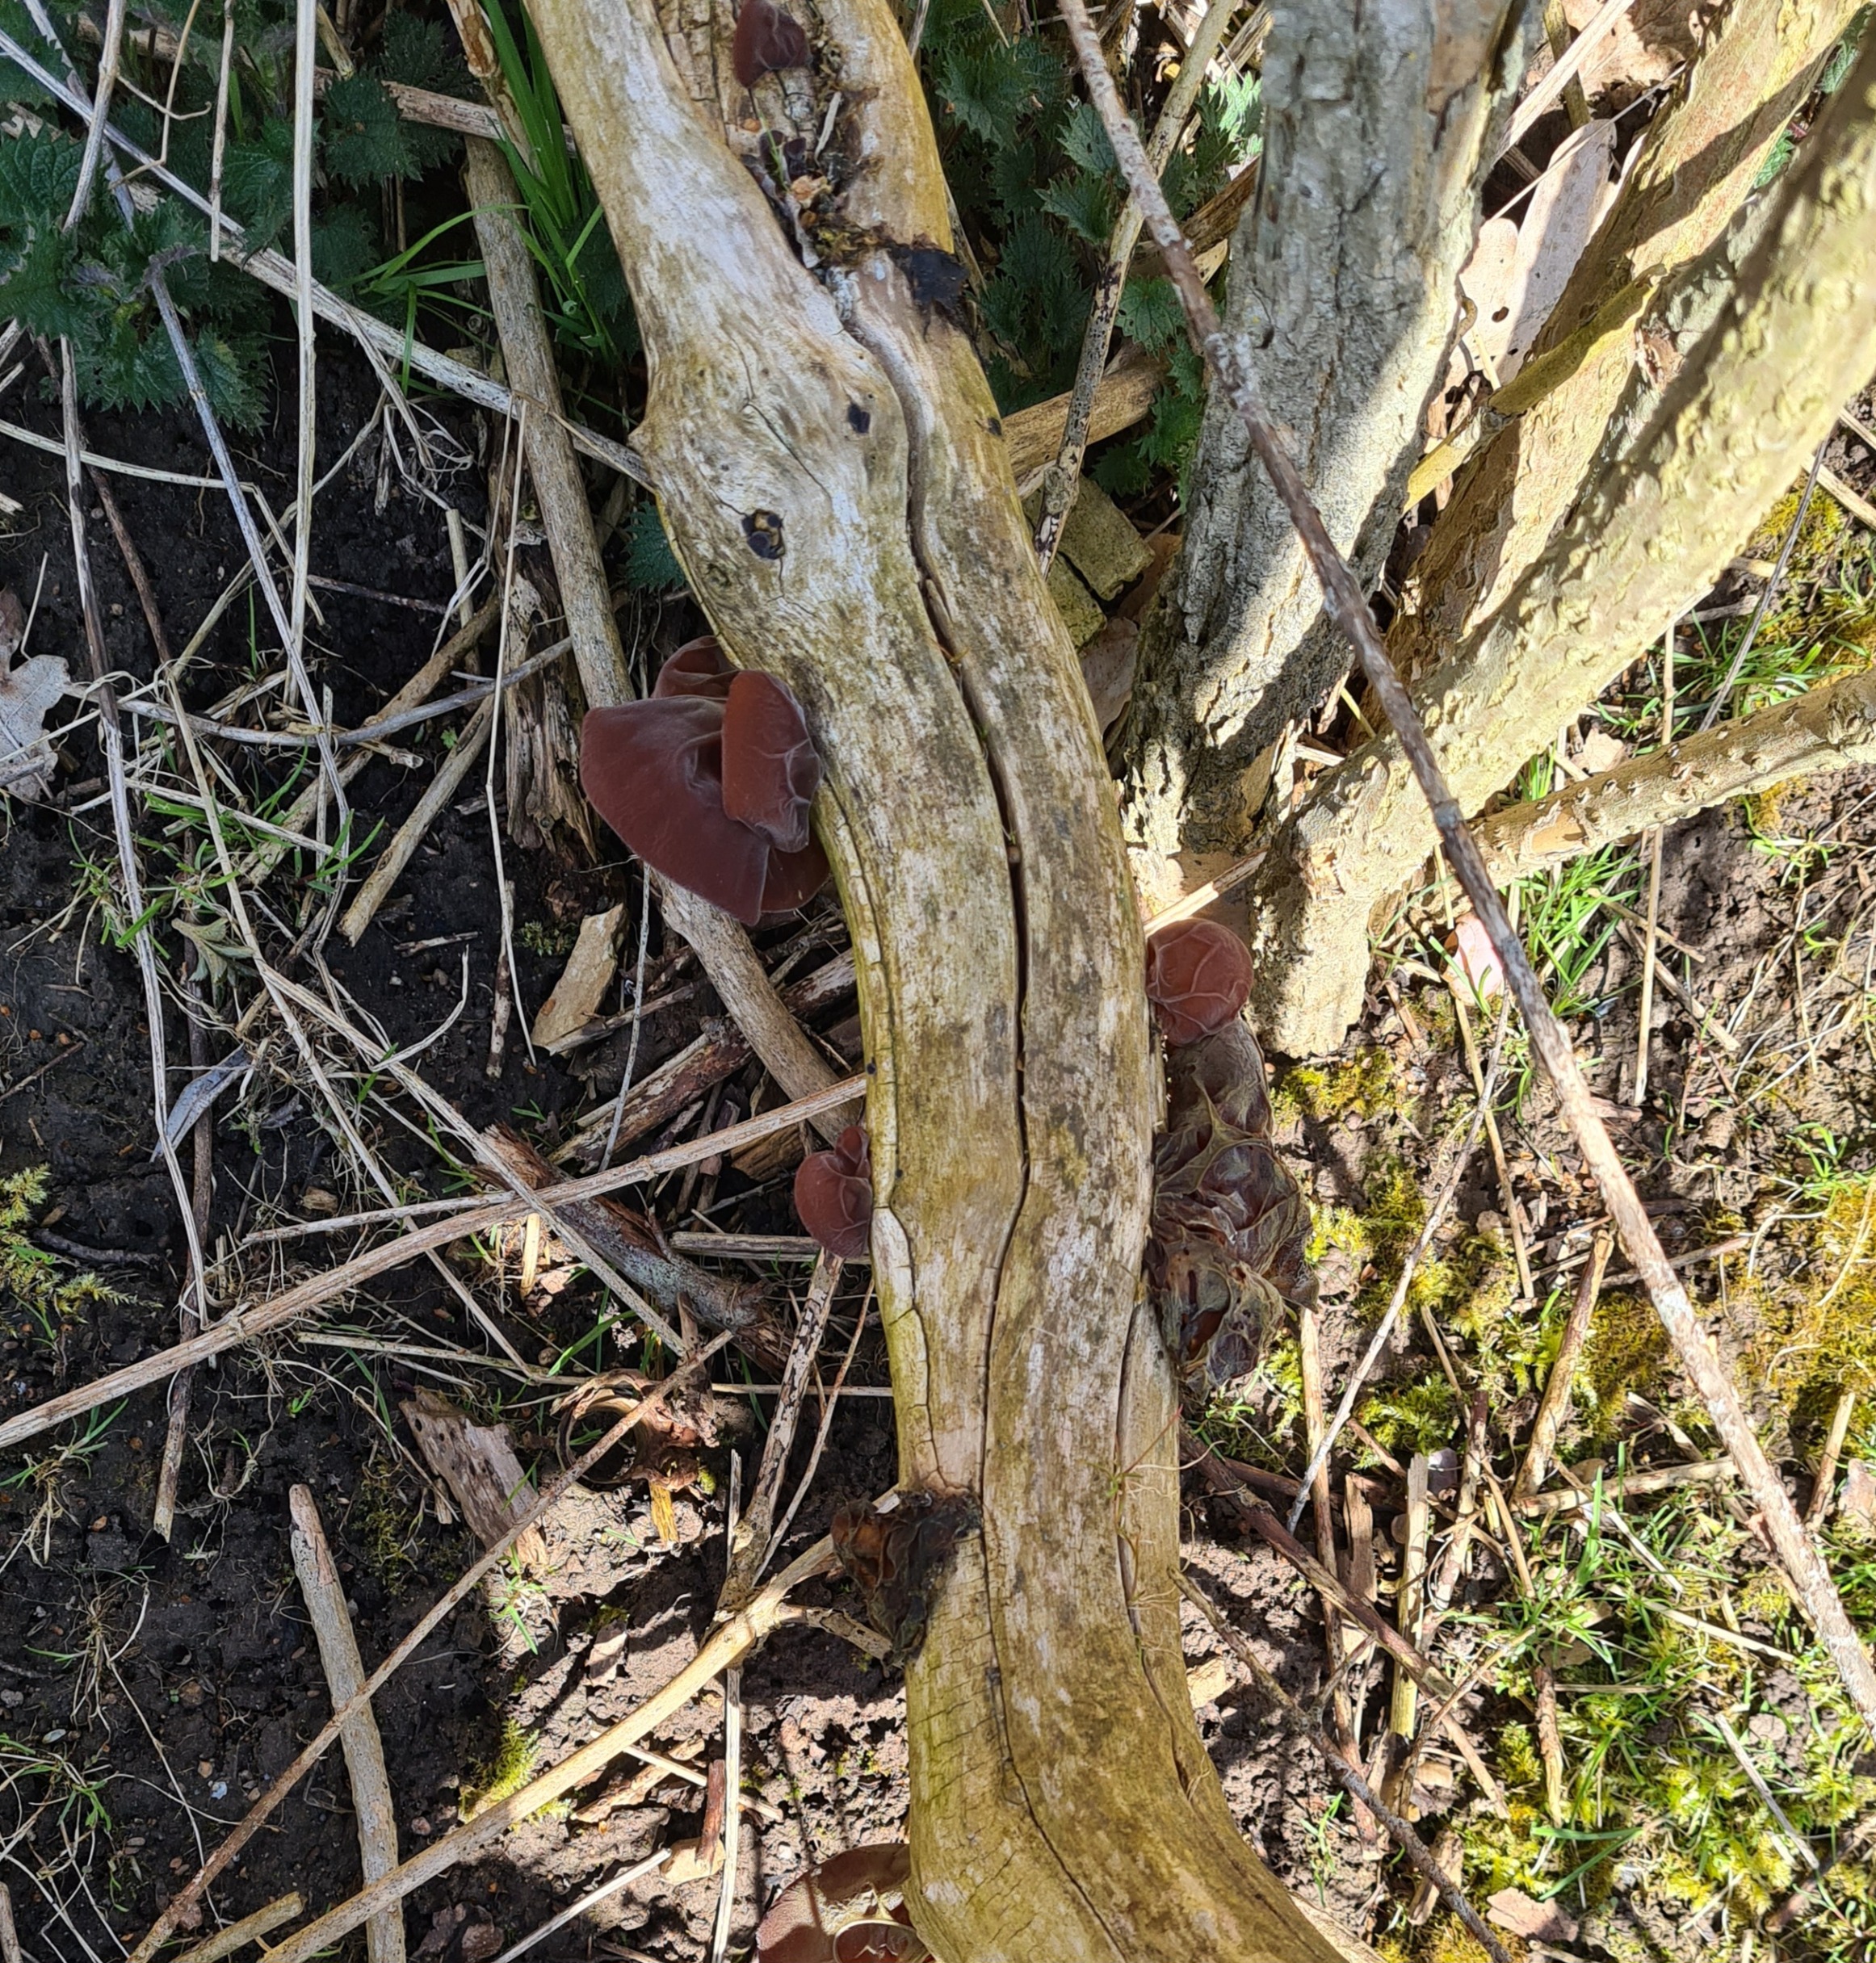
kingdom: Fungi
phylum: Basidiomycota
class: Agaricomycetes
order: Auriculariales
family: Auriculariaceae
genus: Auricularia
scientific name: Auricularia auricula-judae
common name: Almindelig judasøre
